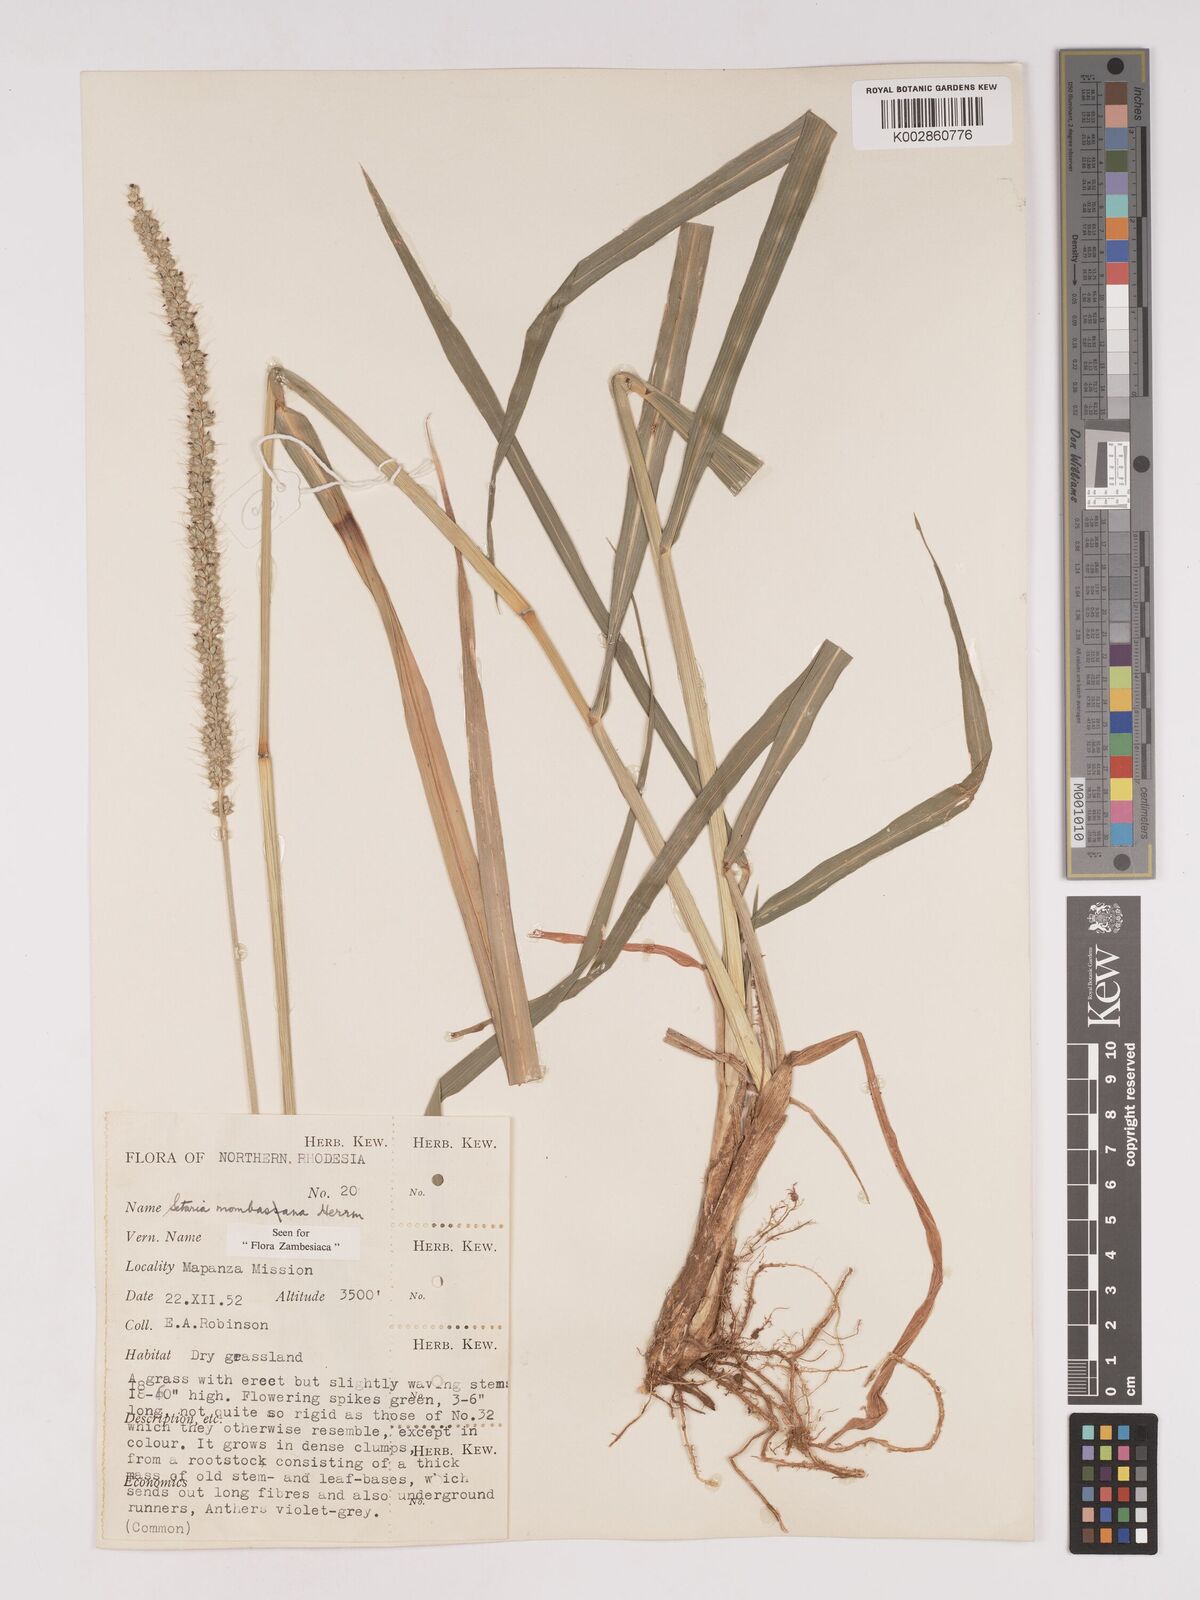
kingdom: Plantae
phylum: Tracheophyta
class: Liliopsida
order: Poales
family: Poaceae
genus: Setaria
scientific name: Setaria incrassata
